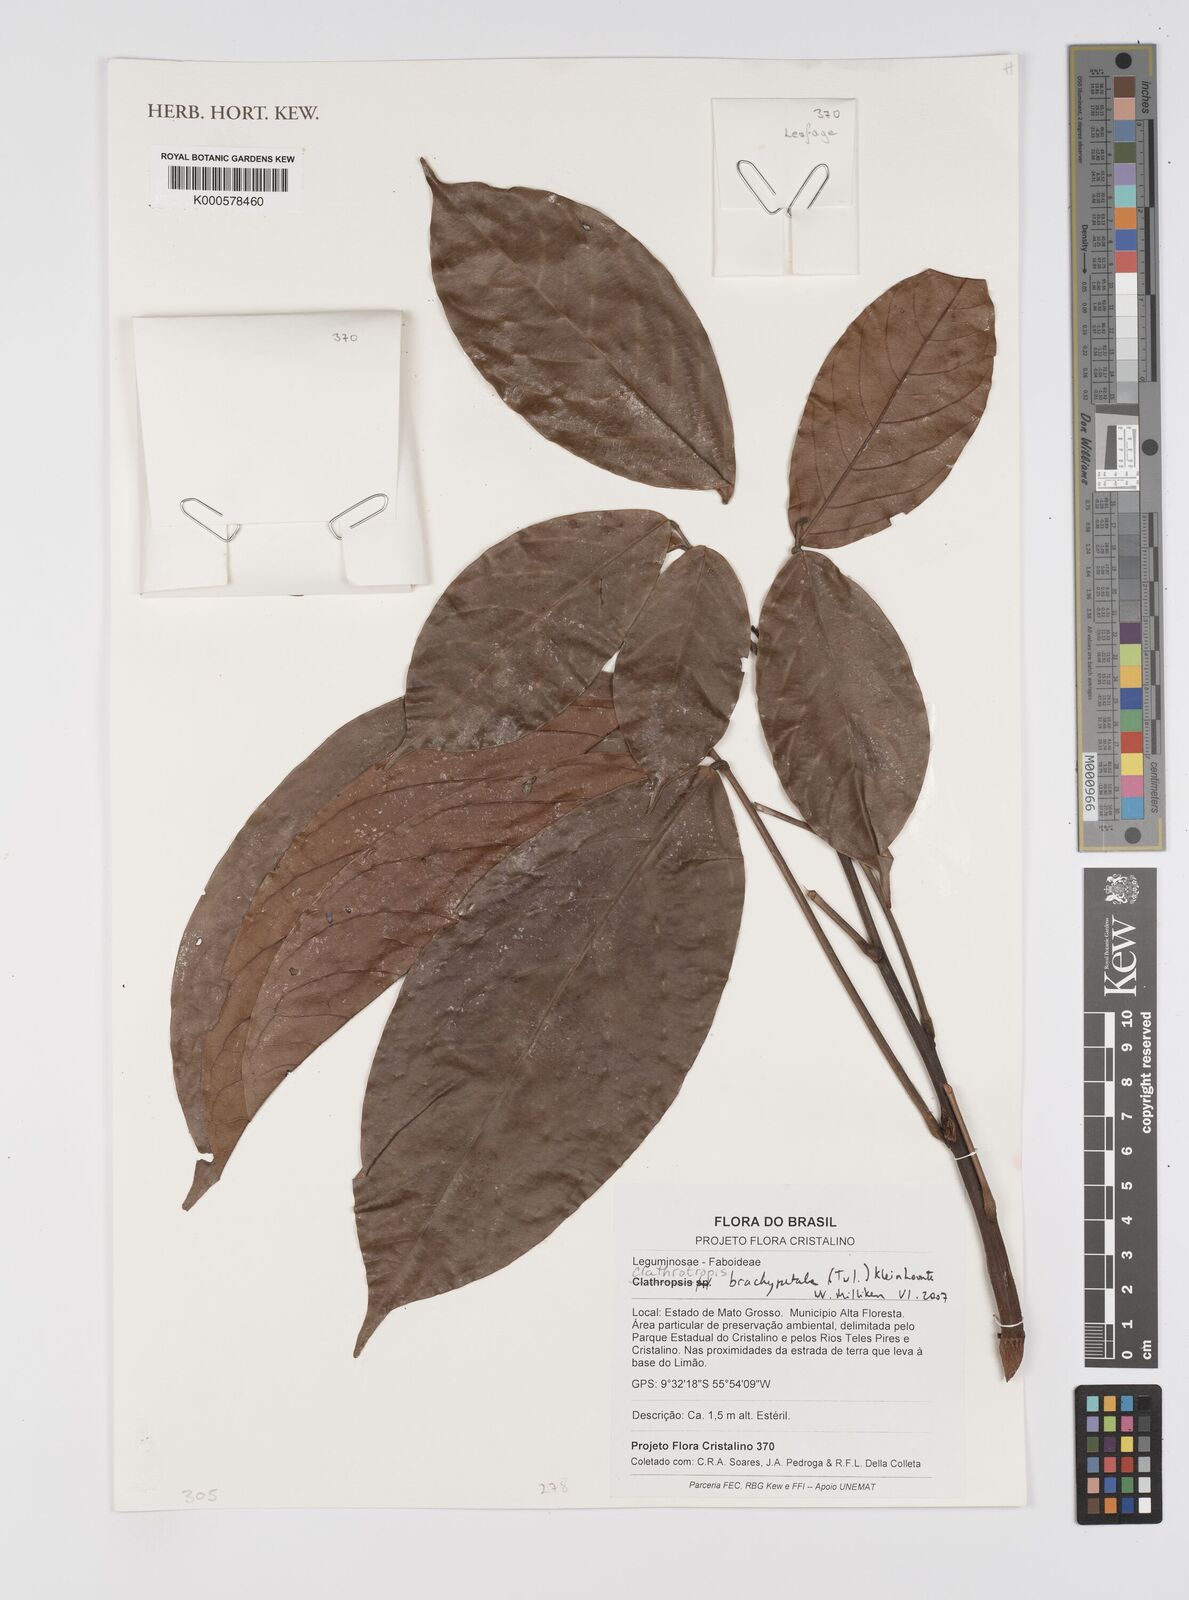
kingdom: Plantae
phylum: Tracheophyta
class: Magnoliopsida
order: Fabales
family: Fabaceae
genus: Clathrotropis
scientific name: Clathrotropis brachypetala
